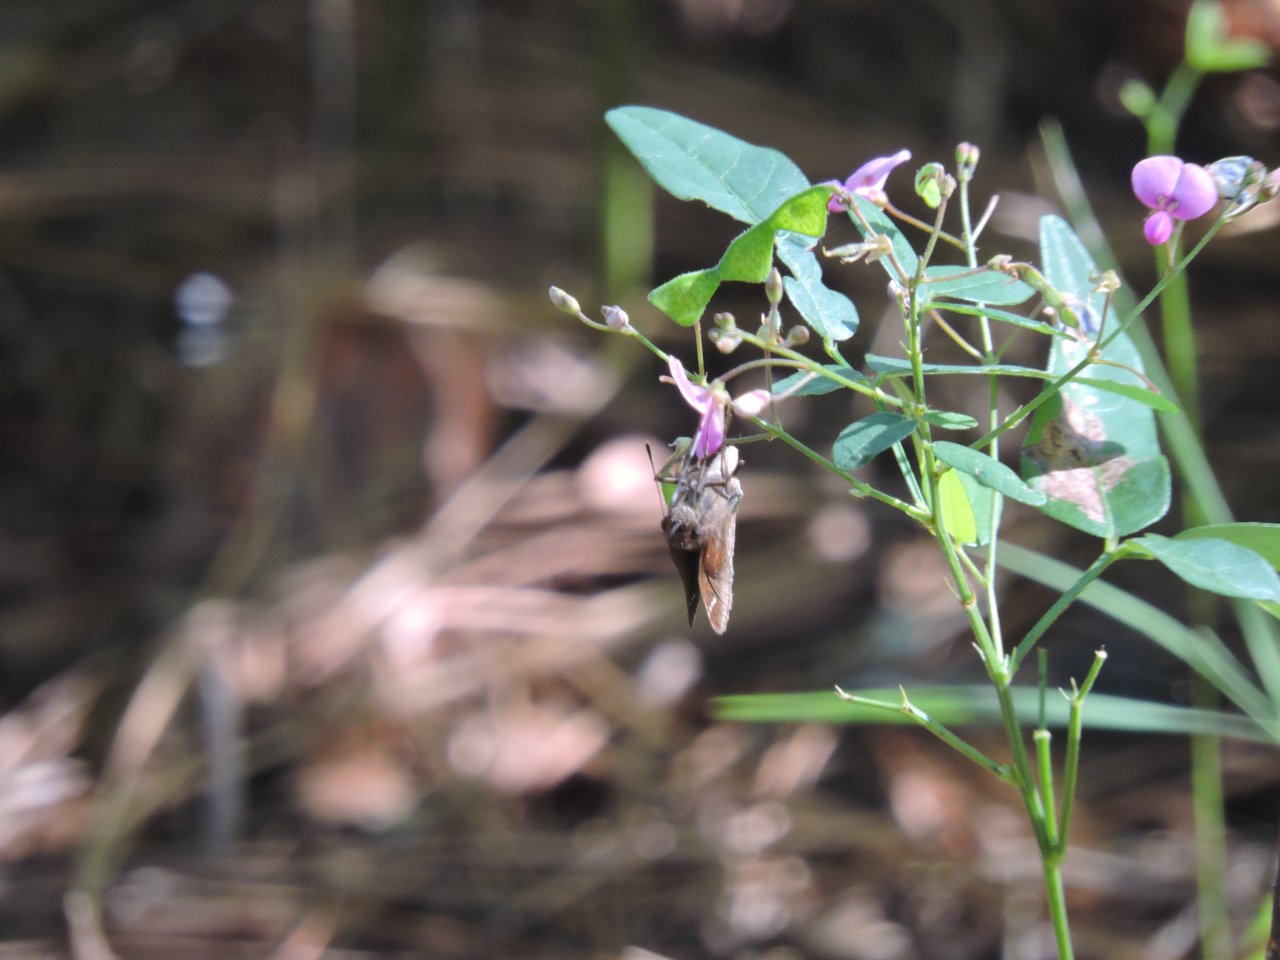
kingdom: Animalia
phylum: Arthropoda
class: Insecta
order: Lepidoptera
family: Hesperiidae
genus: Lerema
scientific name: Lerema accius
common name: Clouded Skipper
